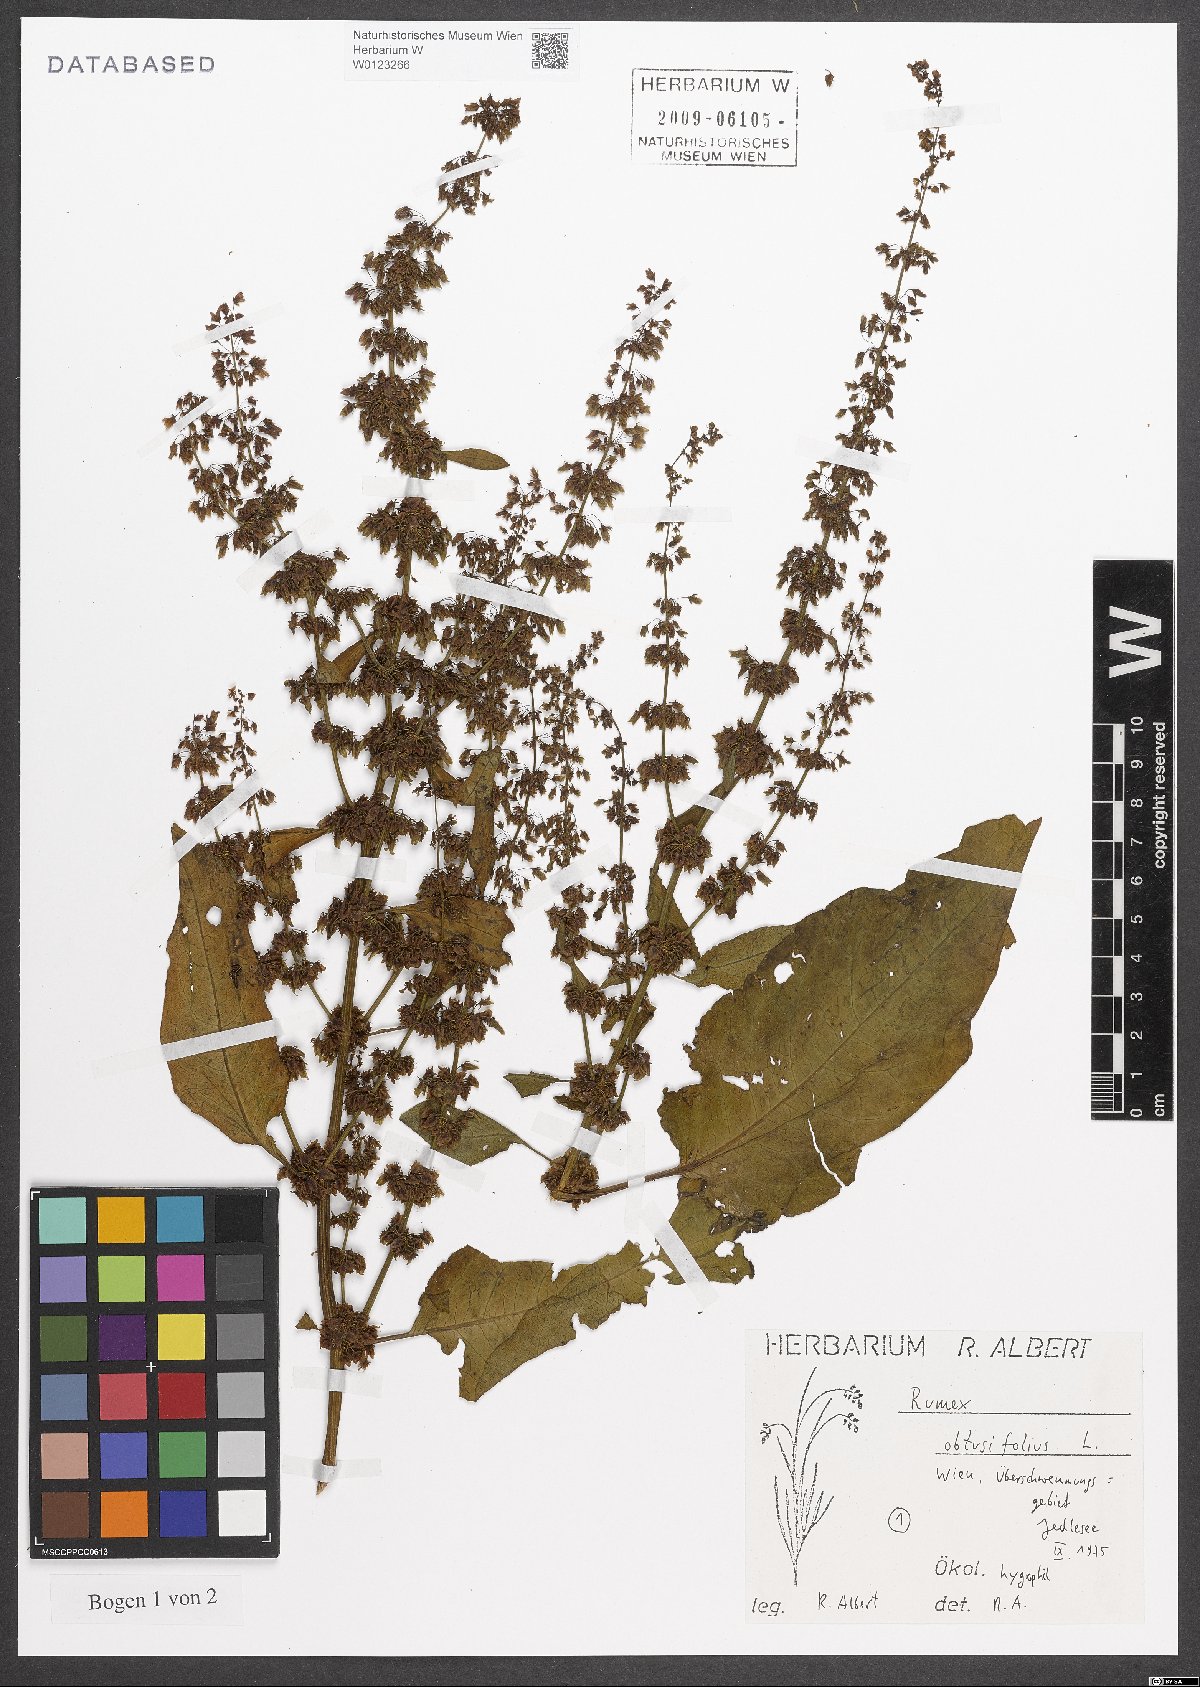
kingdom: Plantae
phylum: Tracheophyta
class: Magnoliopsida
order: Caryophyllales
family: Polygonaceae
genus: Rumex
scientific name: Rumex obtusifolius
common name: Bitter dock
